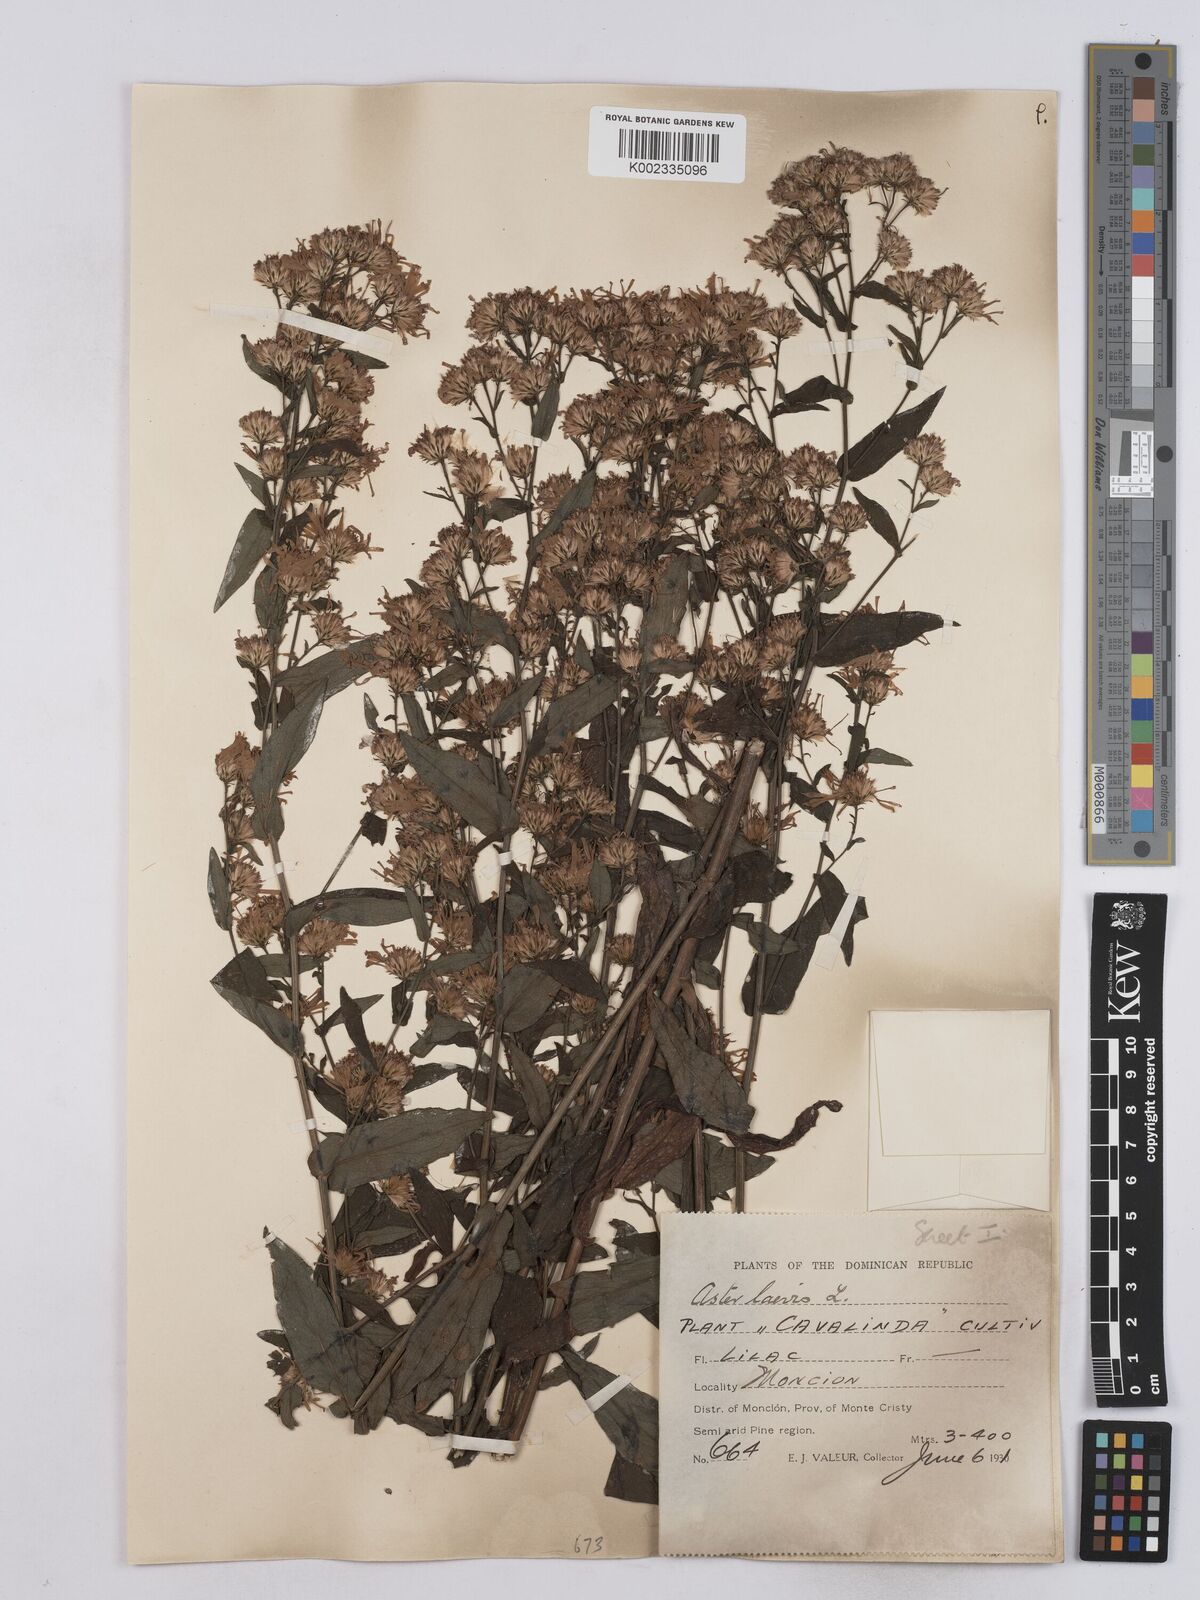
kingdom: Plantae
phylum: Tracheophyta
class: Magnoliopsida
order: Asterales
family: Asteraceae
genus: Symphyotrichum
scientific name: Symphyotrichum laeve
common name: Glaucous aster
